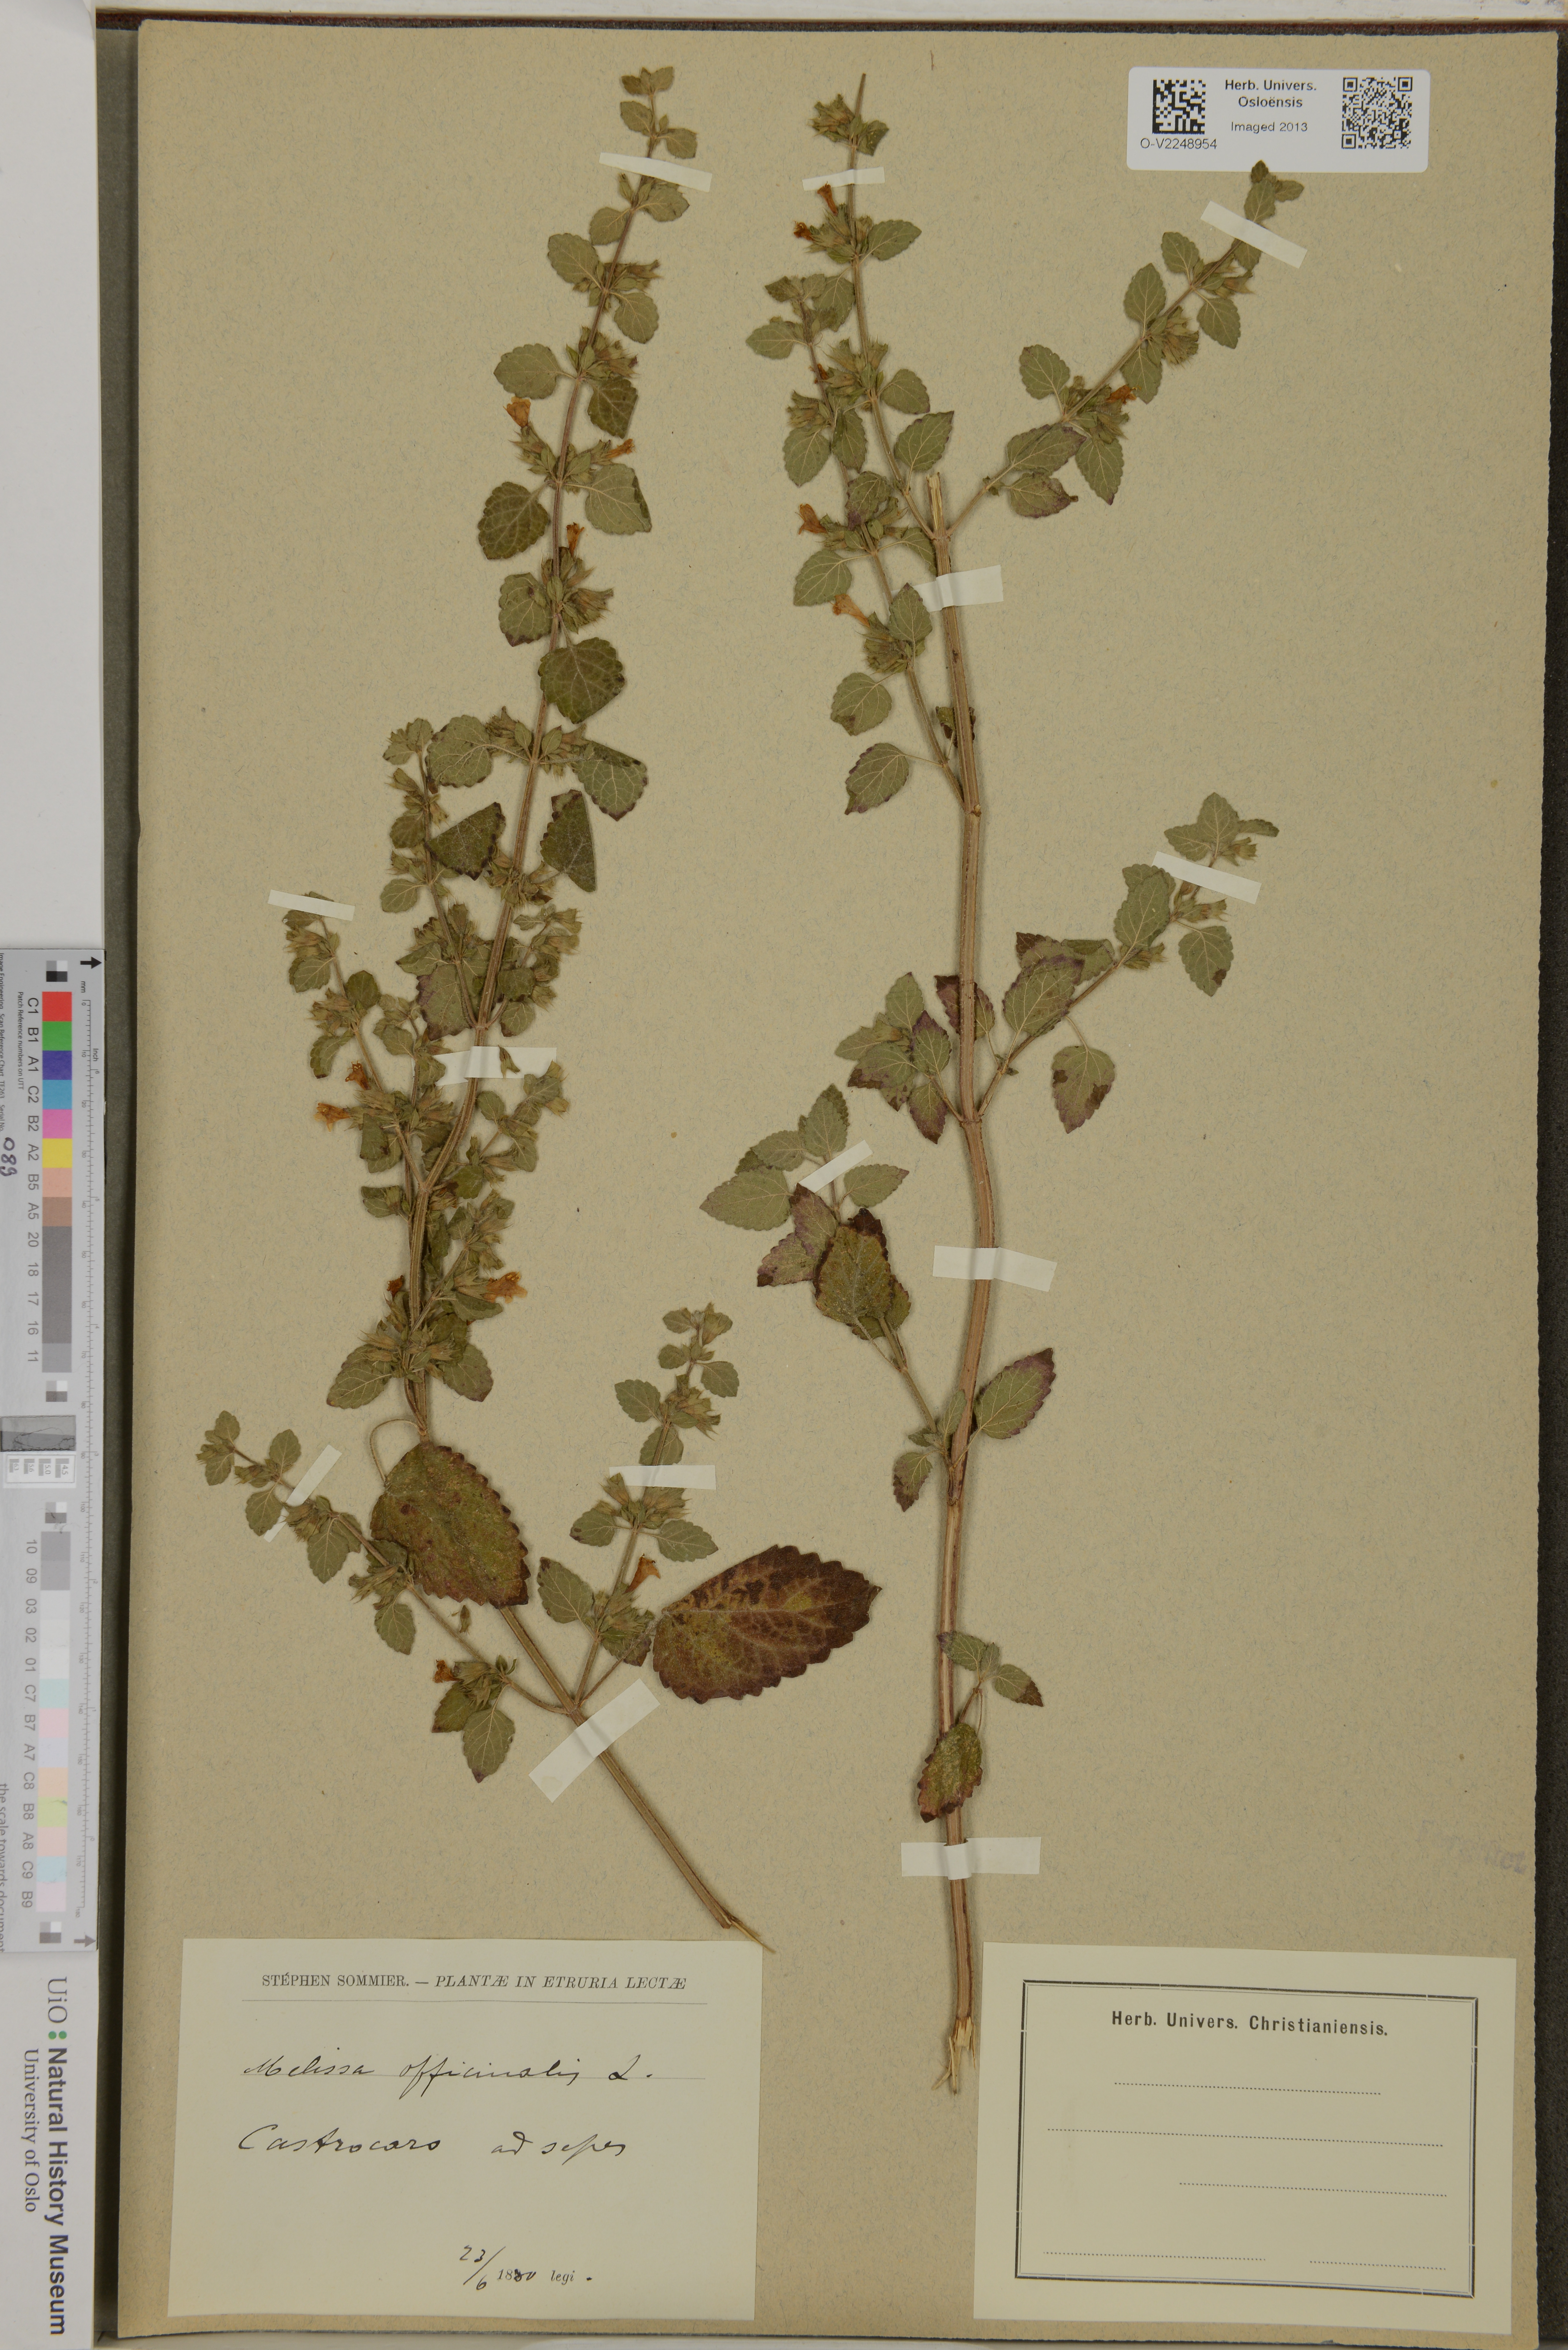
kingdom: Plantae
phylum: Tracheophyta
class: Magnoliopsida
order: Lamiales
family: Lamiaceae
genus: Melissa
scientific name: Melissa officinalis
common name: Balm
